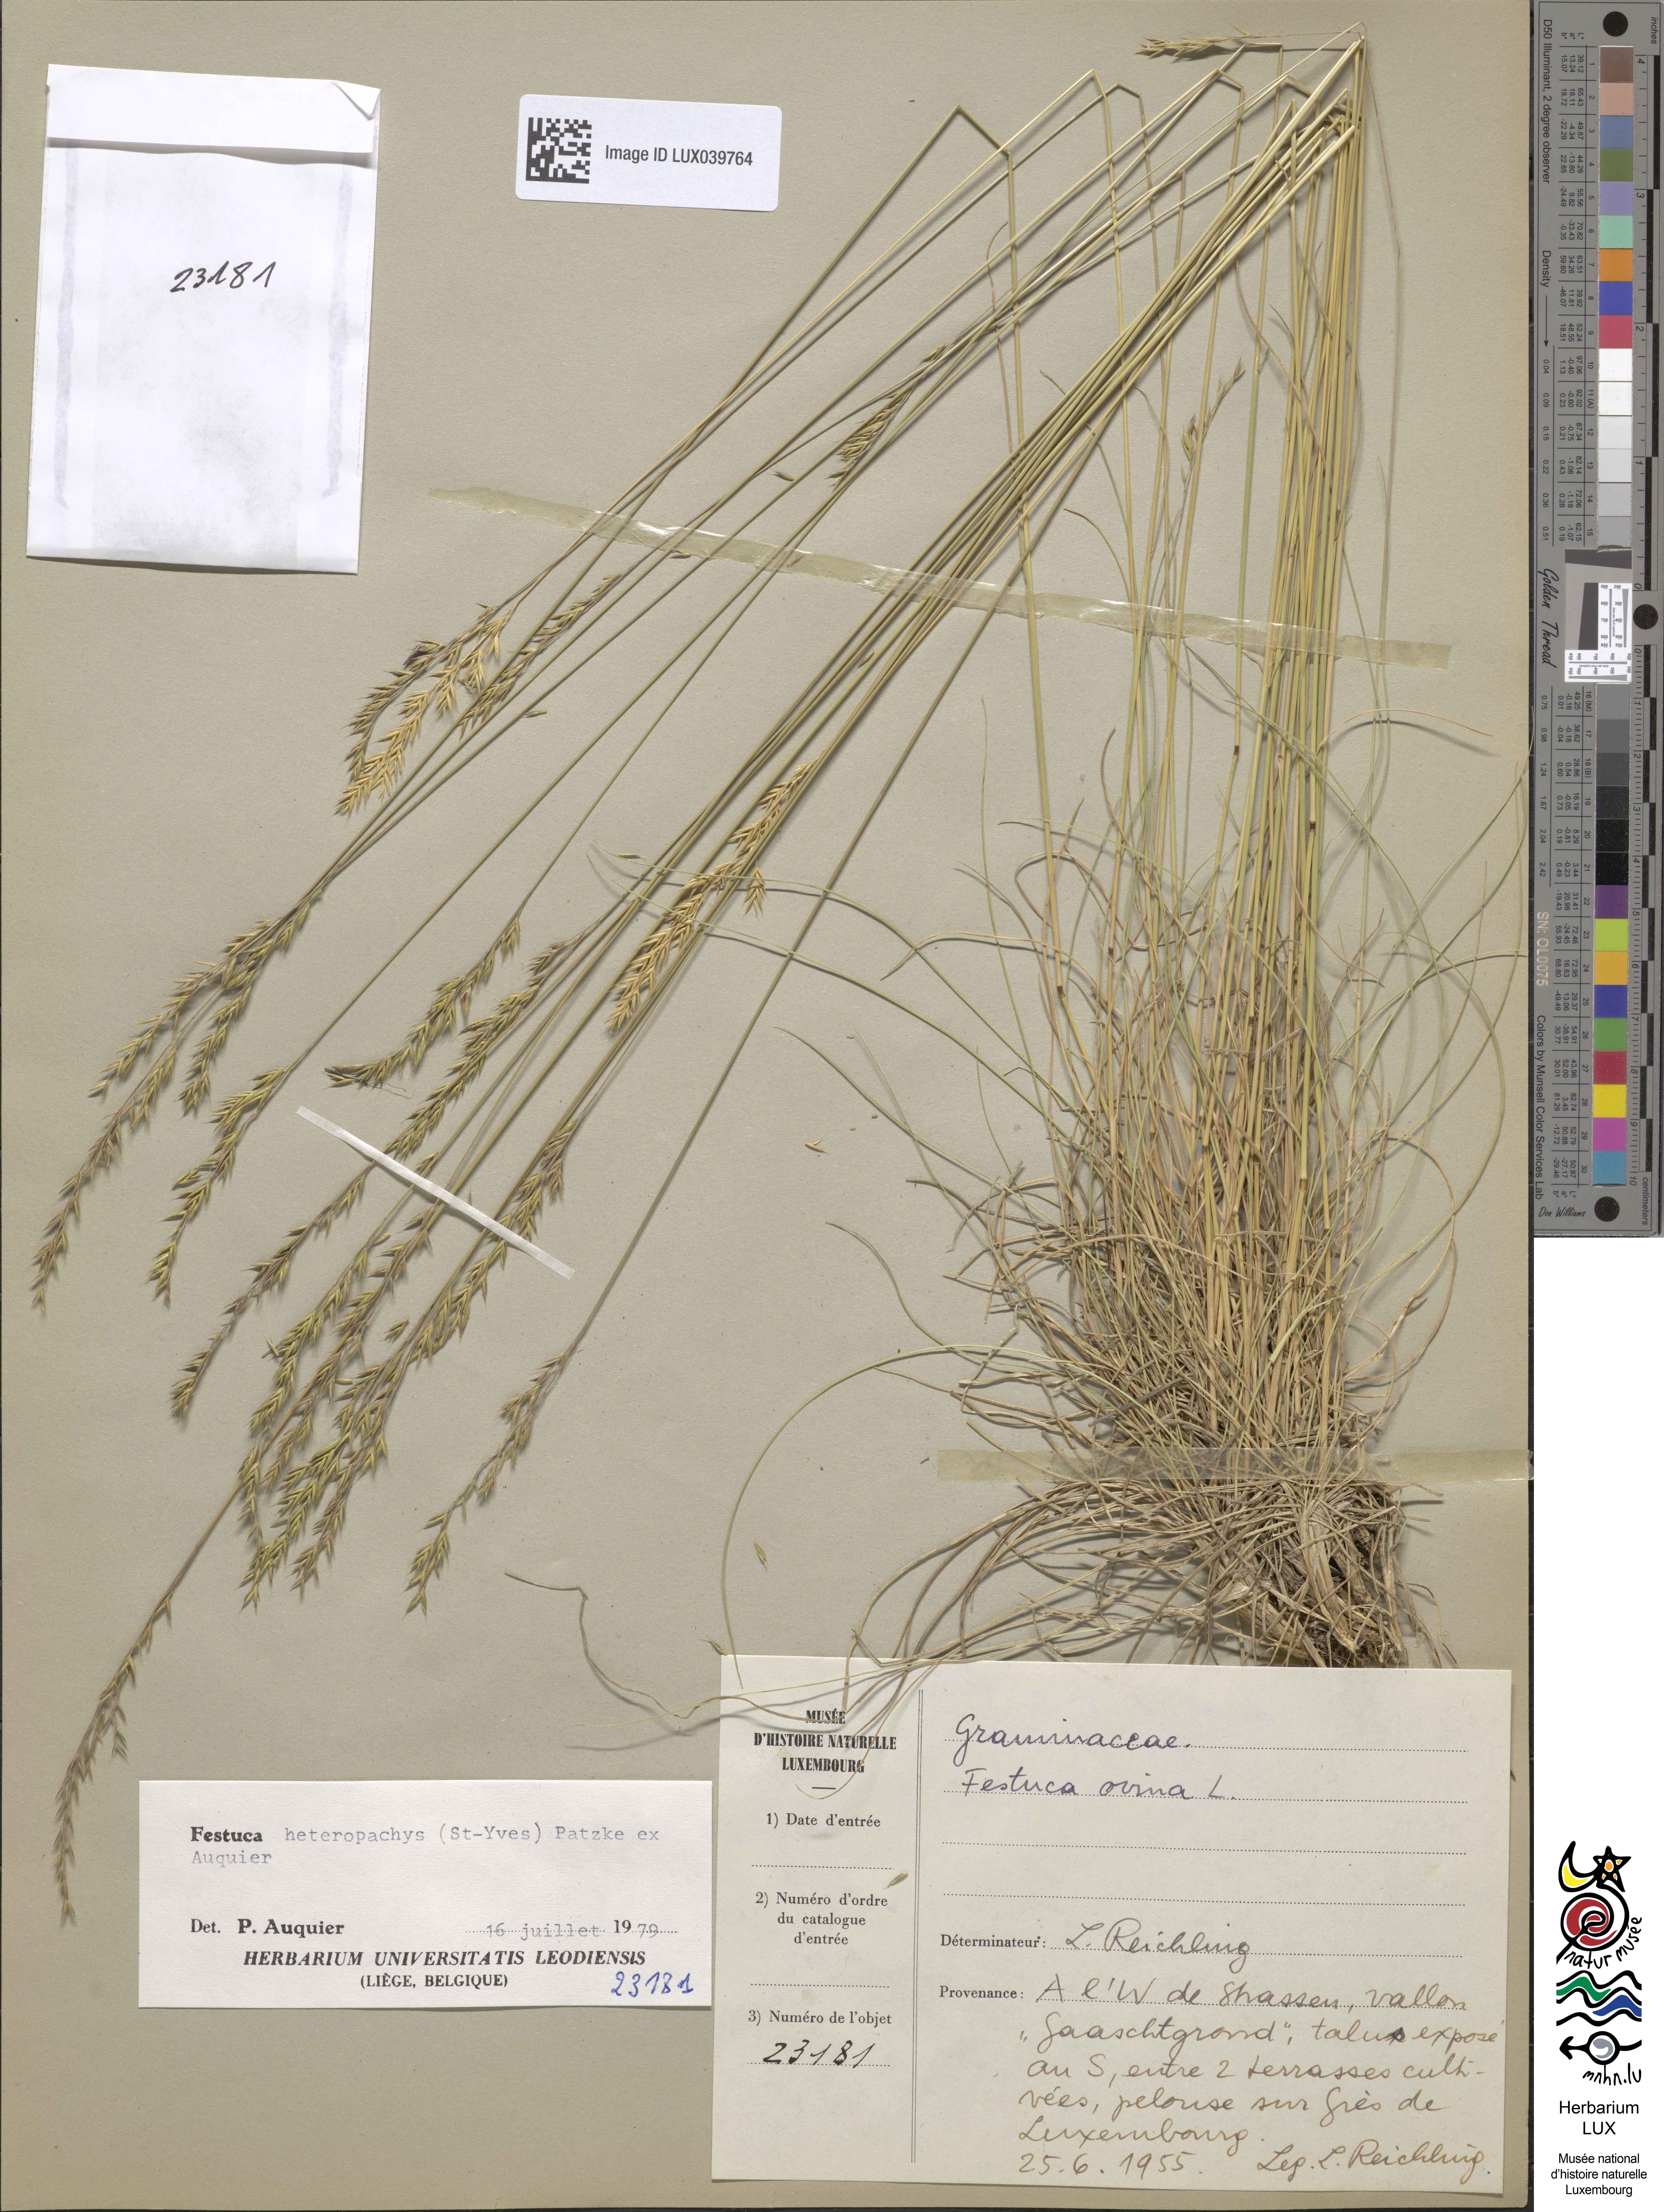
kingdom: Plantae
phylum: Tracheophyta
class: Liliopsida
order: Poales
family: Poaceae
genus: Festuca
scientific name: Festuca ovina
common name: Sheep fescue
